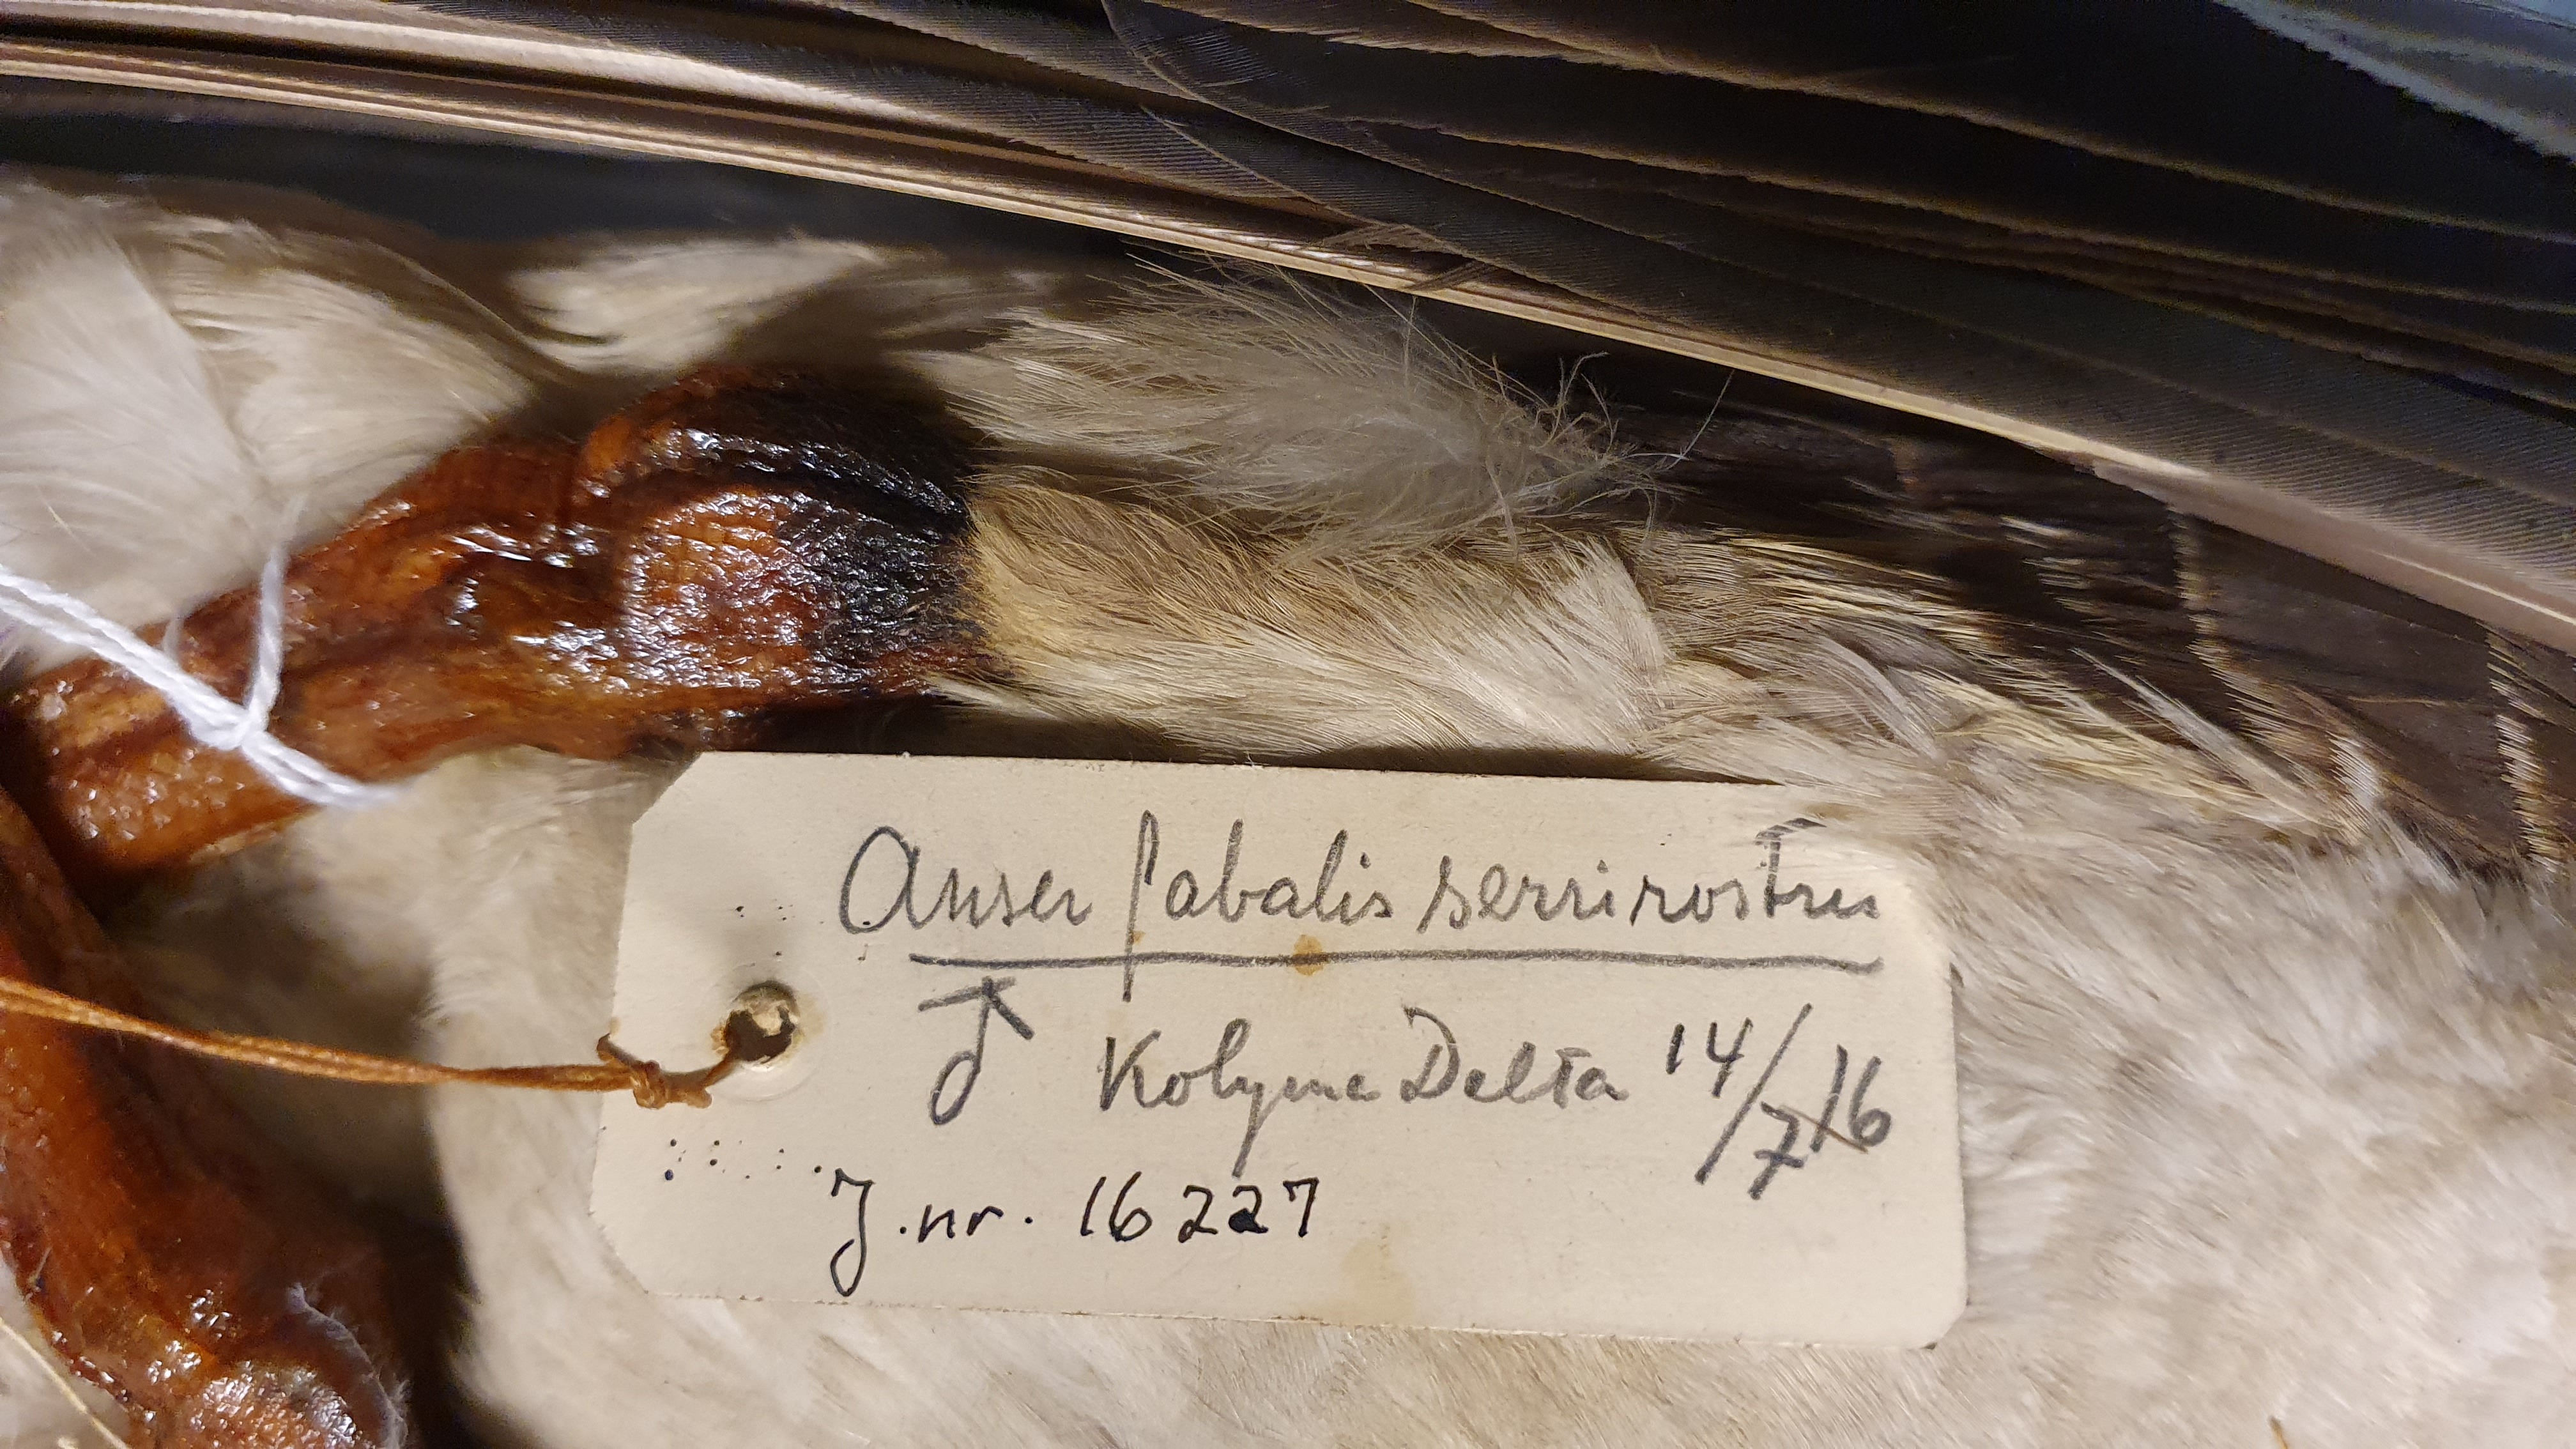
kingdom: Animalia
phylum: Chordata
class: Aves
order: Anseriformes
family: Anatidae
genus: Anser
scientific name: Anser serrirostris
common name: Tundra bean goose
